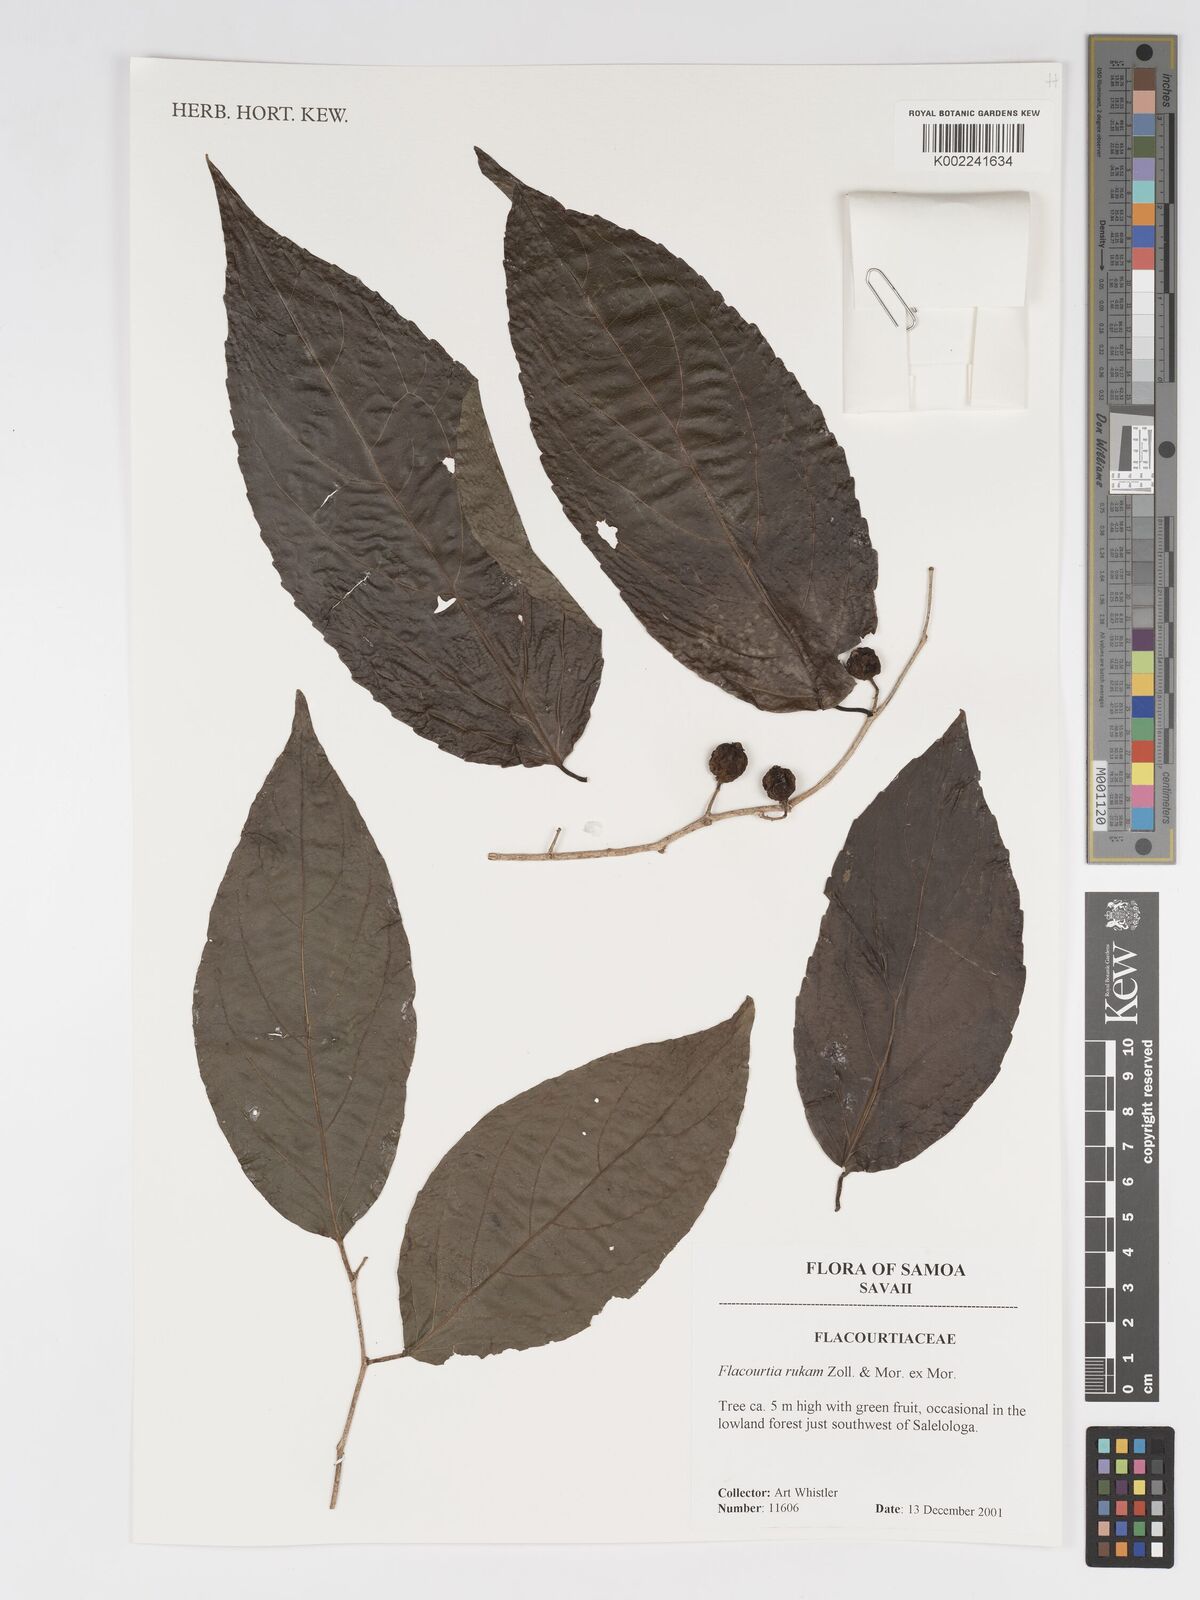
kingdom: Plantae
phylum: Tracheophyta
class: Magnoliopsida
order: Malpighiales
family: Salicaceae
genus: Flacourtia
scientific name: Flacourtia rukam
